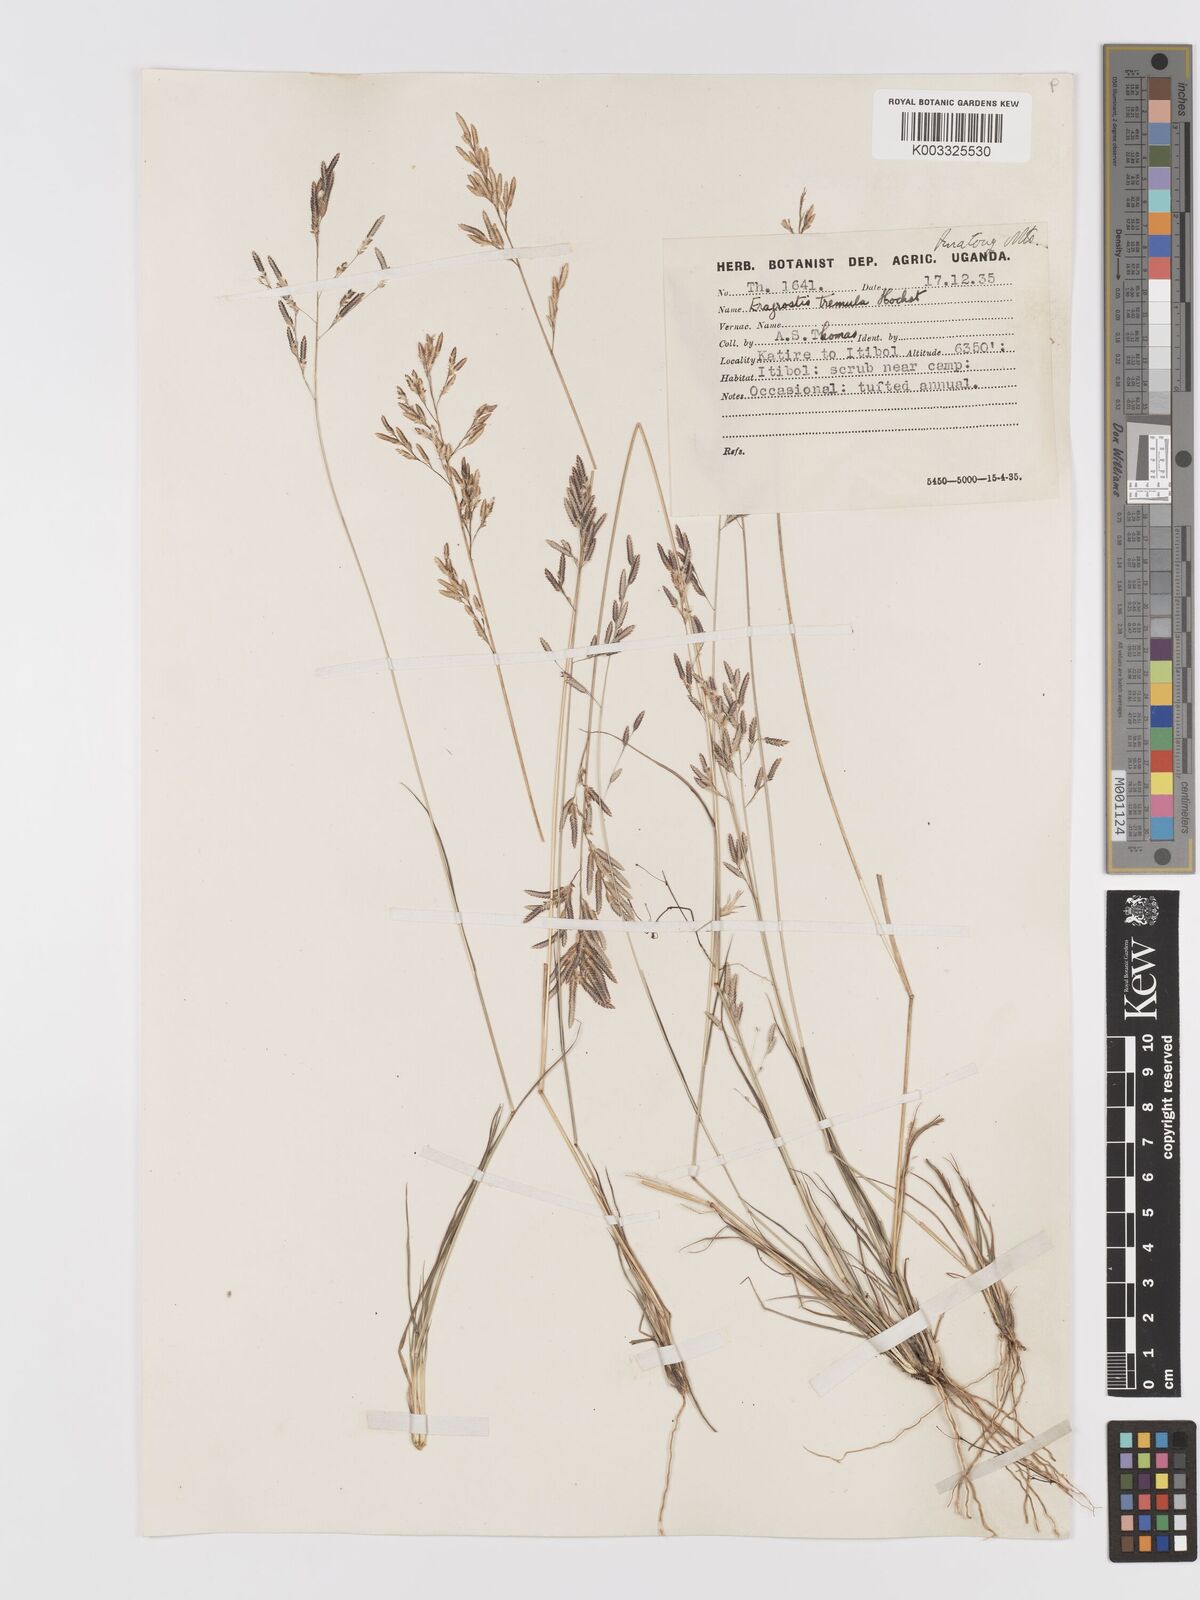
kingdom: Plantae
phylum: Tracheophyta
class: Liliopsida
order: Poales
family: Poaceae
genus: Eragrostis
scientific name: Eragrostis tremula
